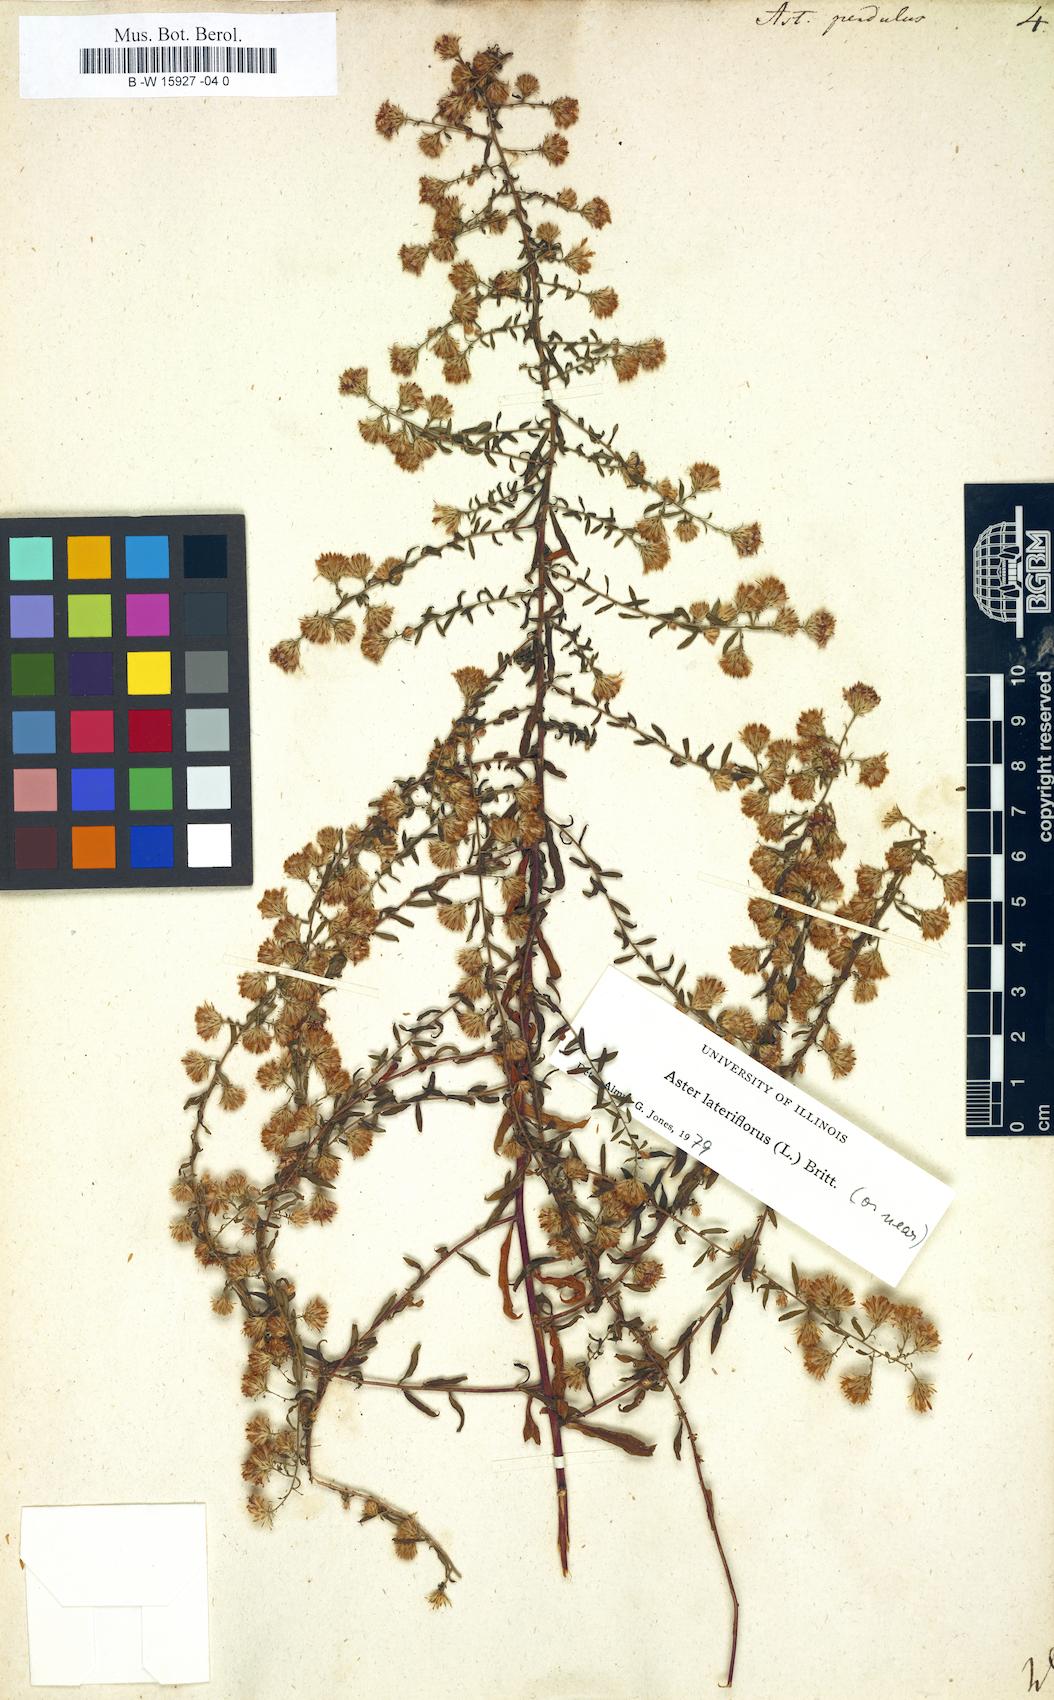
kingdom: Plantae
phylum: Tracheophyta
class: Magnoliopsida
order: Asterales
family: Asteraceae
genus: Symphyotrichum
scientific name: Symphyotrichum lateriflorum
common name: Calico aster
